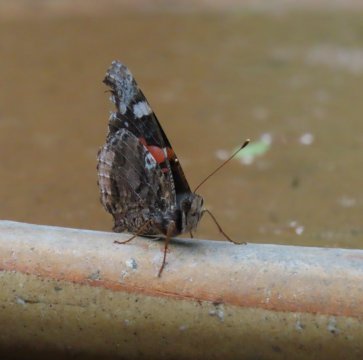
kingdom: Animalia
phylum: Arthropoda
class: Insecta
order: Lepidoptera
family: Nymphalidae
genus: Vanessa
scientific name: Vanessa atalanta
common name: Red Admiral
